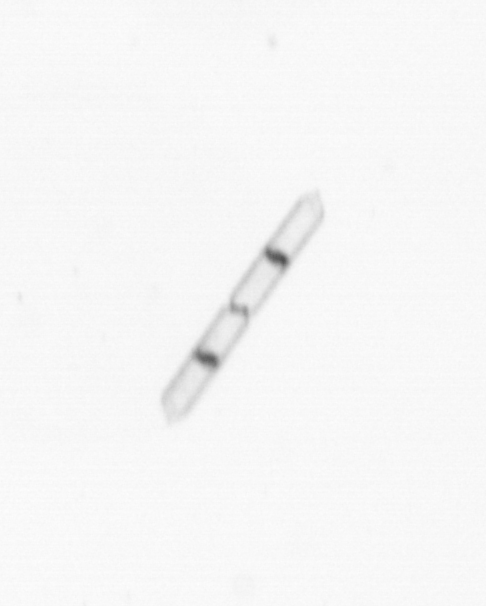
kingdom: Chromista
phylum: Ochrophyta
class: Bacillariophyceae
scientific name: Bacillariophyceae
